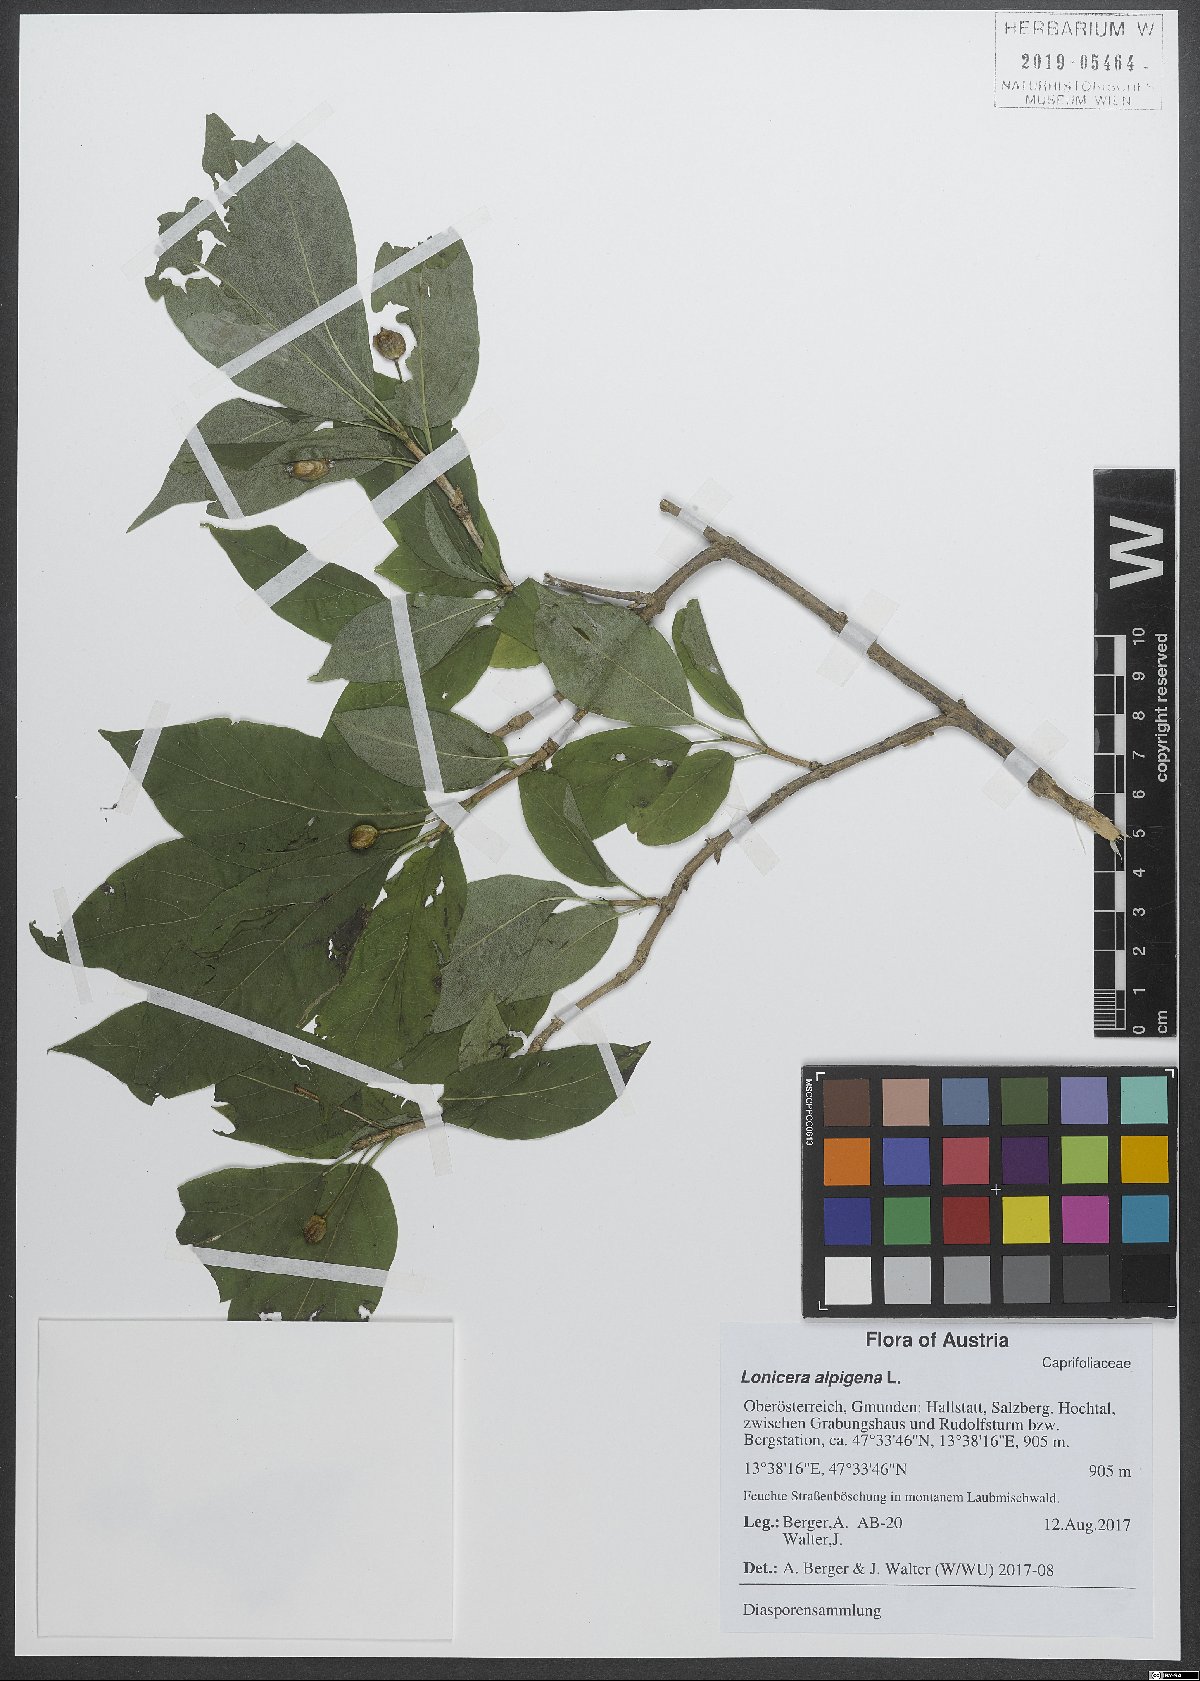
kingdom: Plantae
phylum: Tracheophyta
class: Magnoliopsida
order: Dipsacales
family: Caprifoliaceae
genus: Lonicera
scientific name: Lonicera alpigena
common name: Alpine honeysuckle
